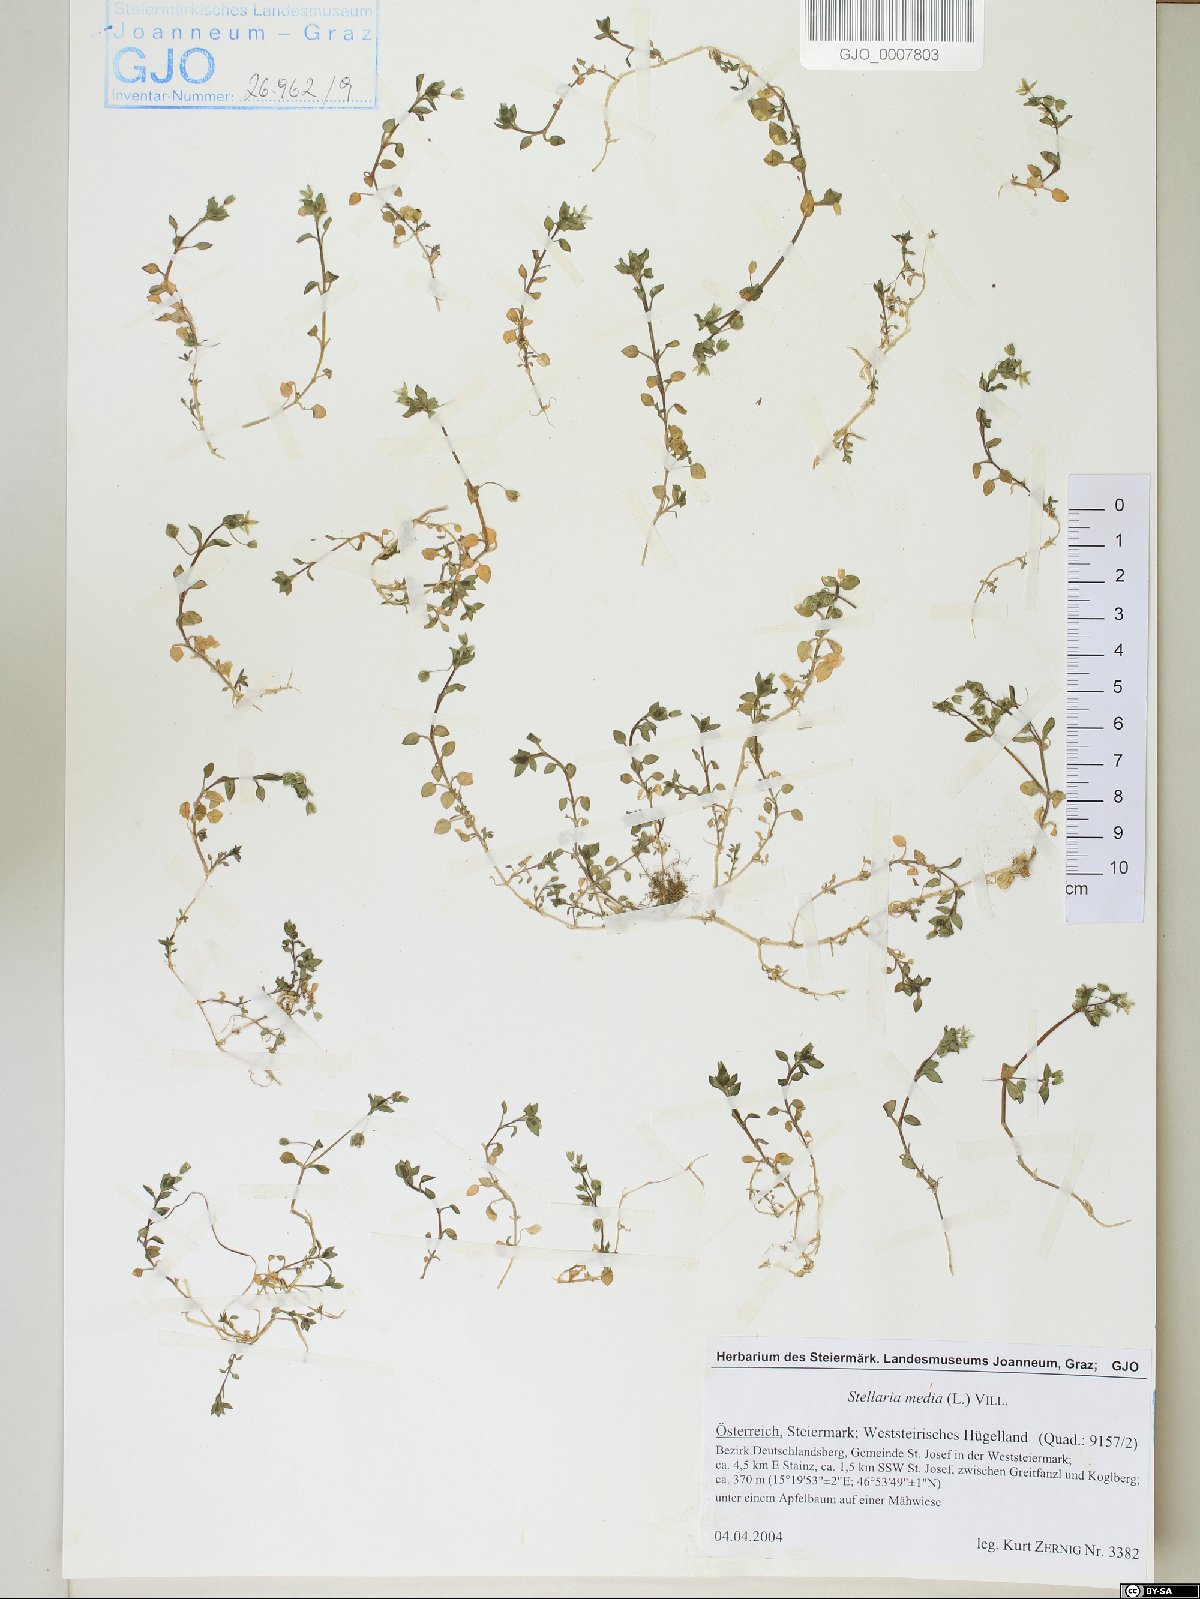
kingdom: Plantae
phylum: Tracheophyta
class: Magnoliopsida
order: Caryophyllales
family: Caryophyllaceae
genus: Stellaria
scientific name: Stellaria media
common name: Common chickweed
